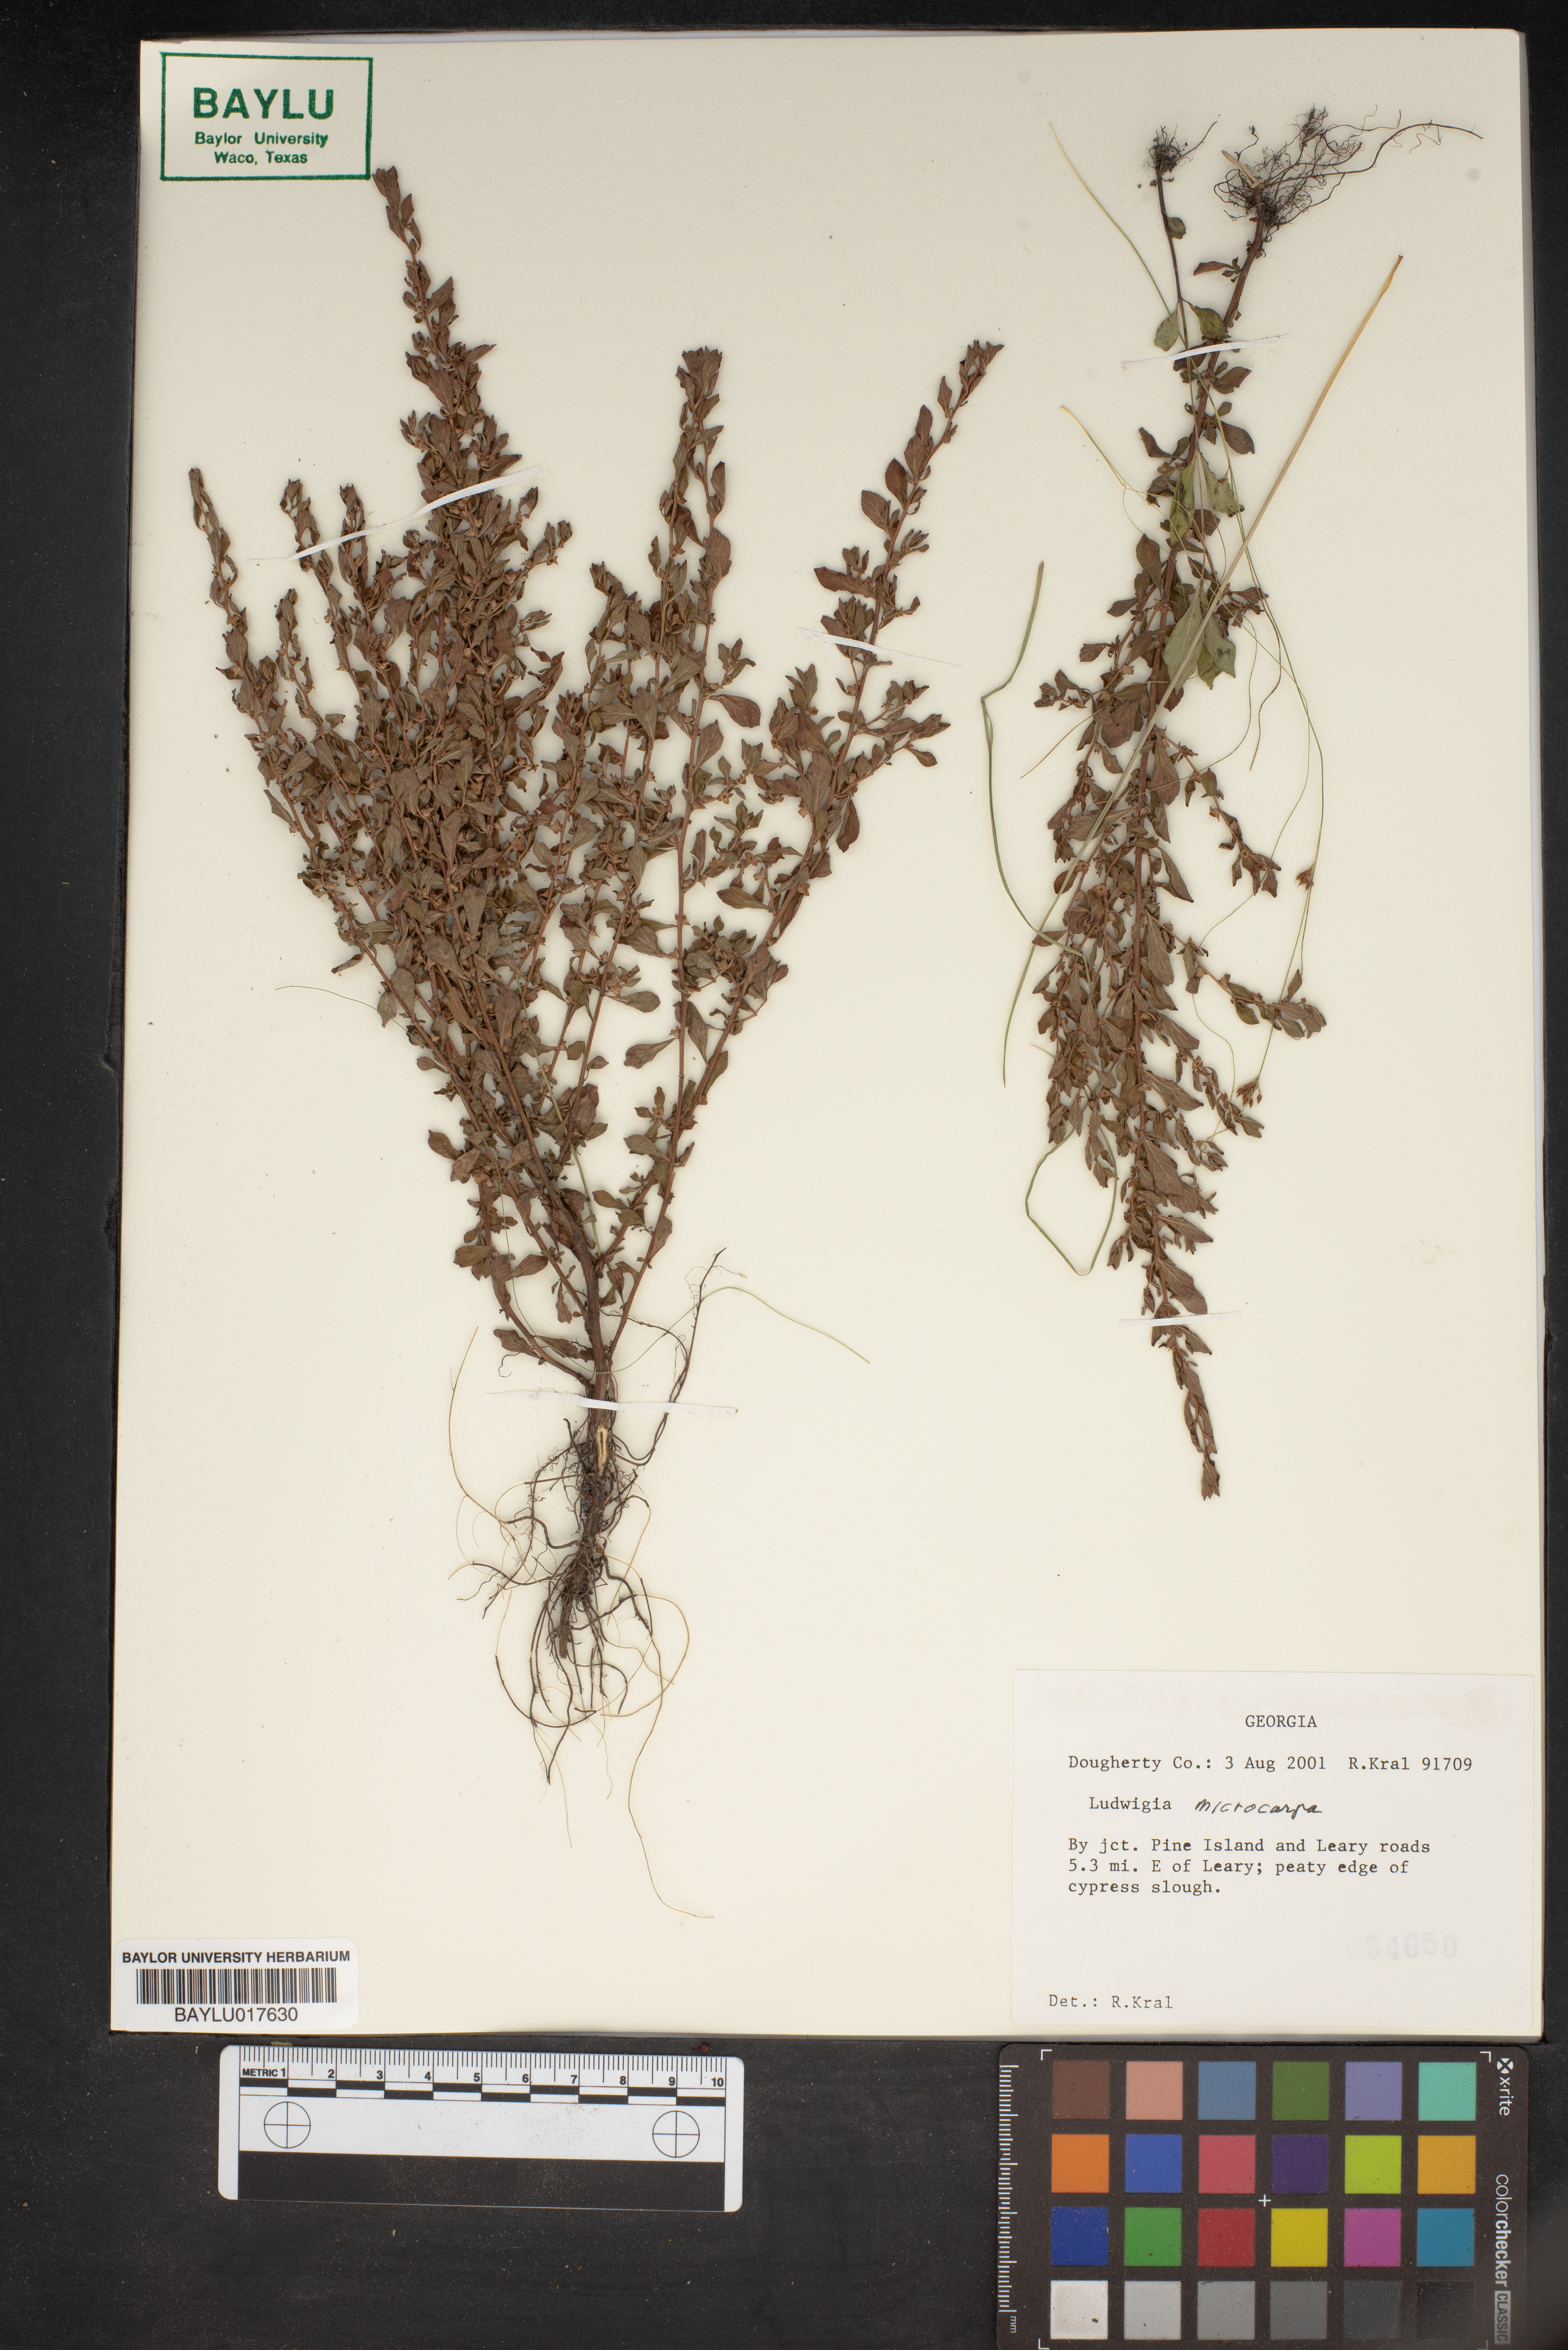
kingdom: Plantae
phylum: Tracheophyta
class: Magnoliopsida
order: Myrtales
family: Onagraceae
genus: Ludwigia
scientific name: Ludwigia microcarpa
